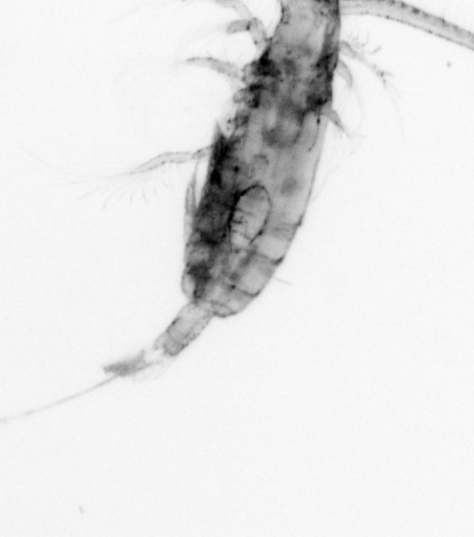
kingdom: Animalia
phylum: Arthropoda
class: Copepoda
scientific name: Copepoda
